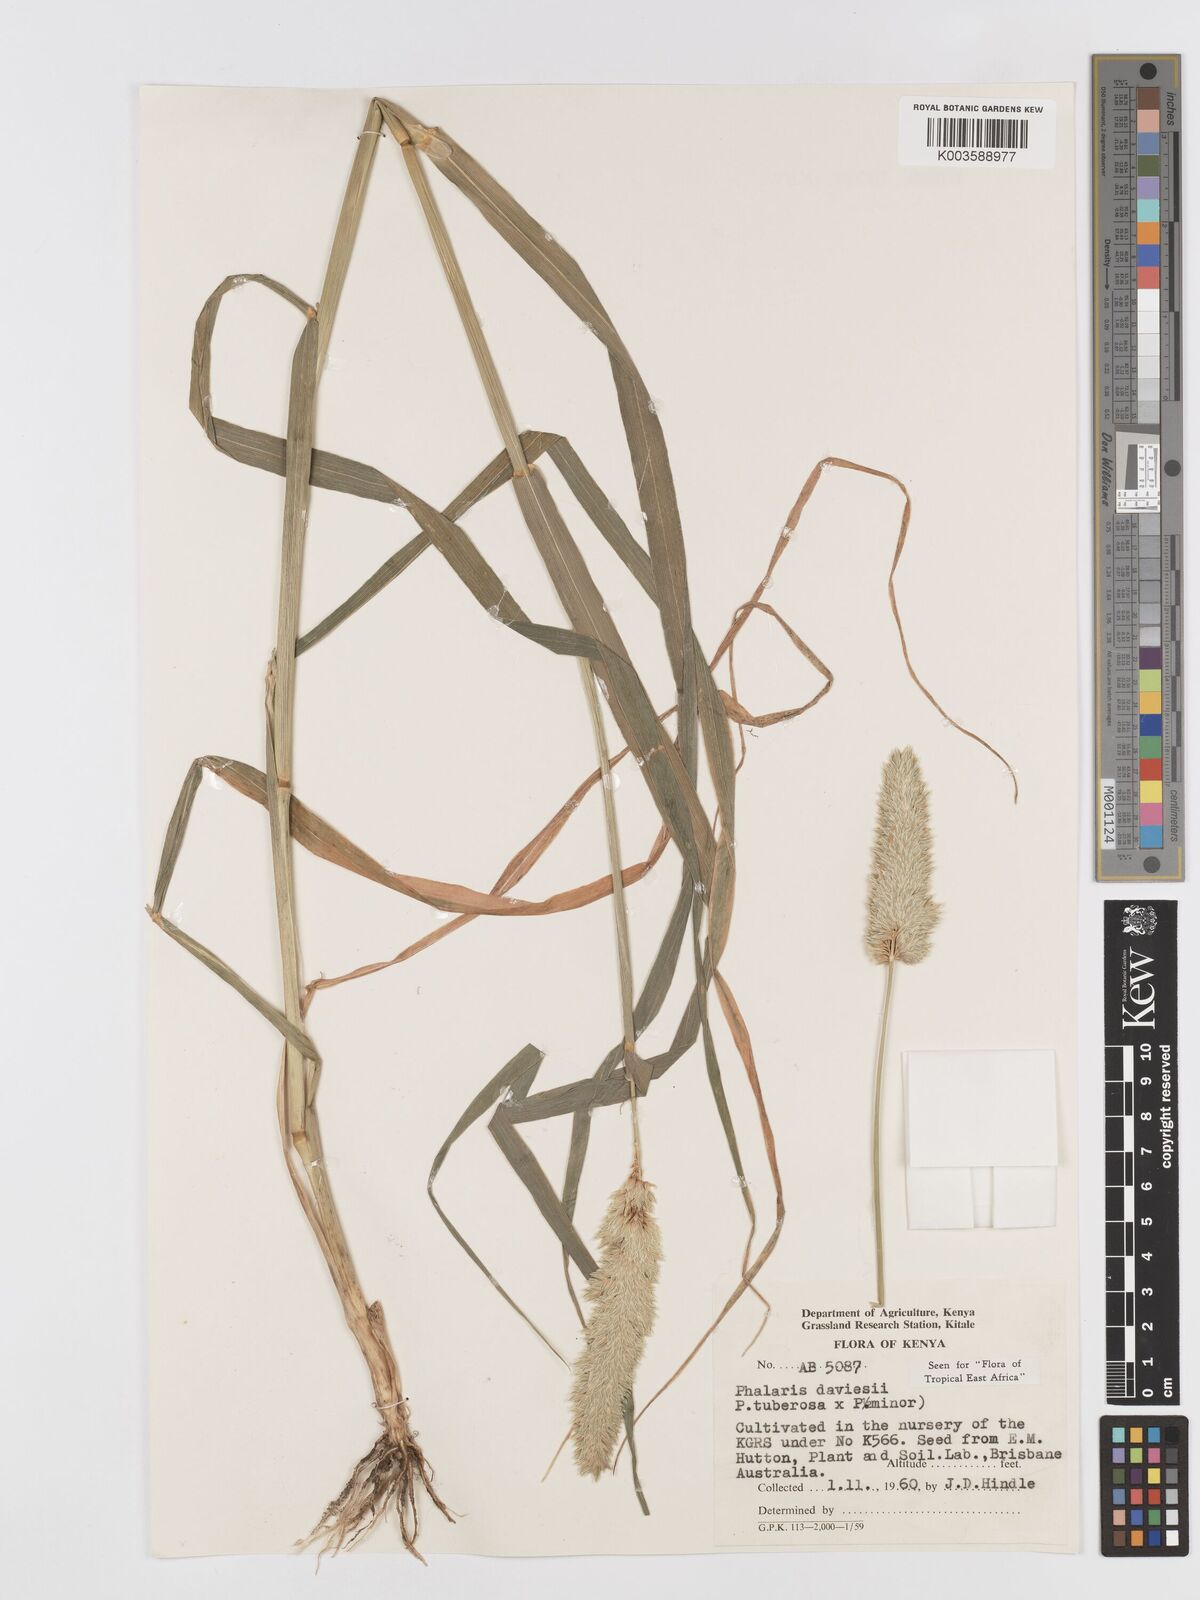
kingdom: Plantae
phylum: Tracheophyta
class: Liliopsida
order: Poales
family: Poaceae
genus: Phalaris
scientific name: Phalaris minor
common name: Littleseed canarygrass
